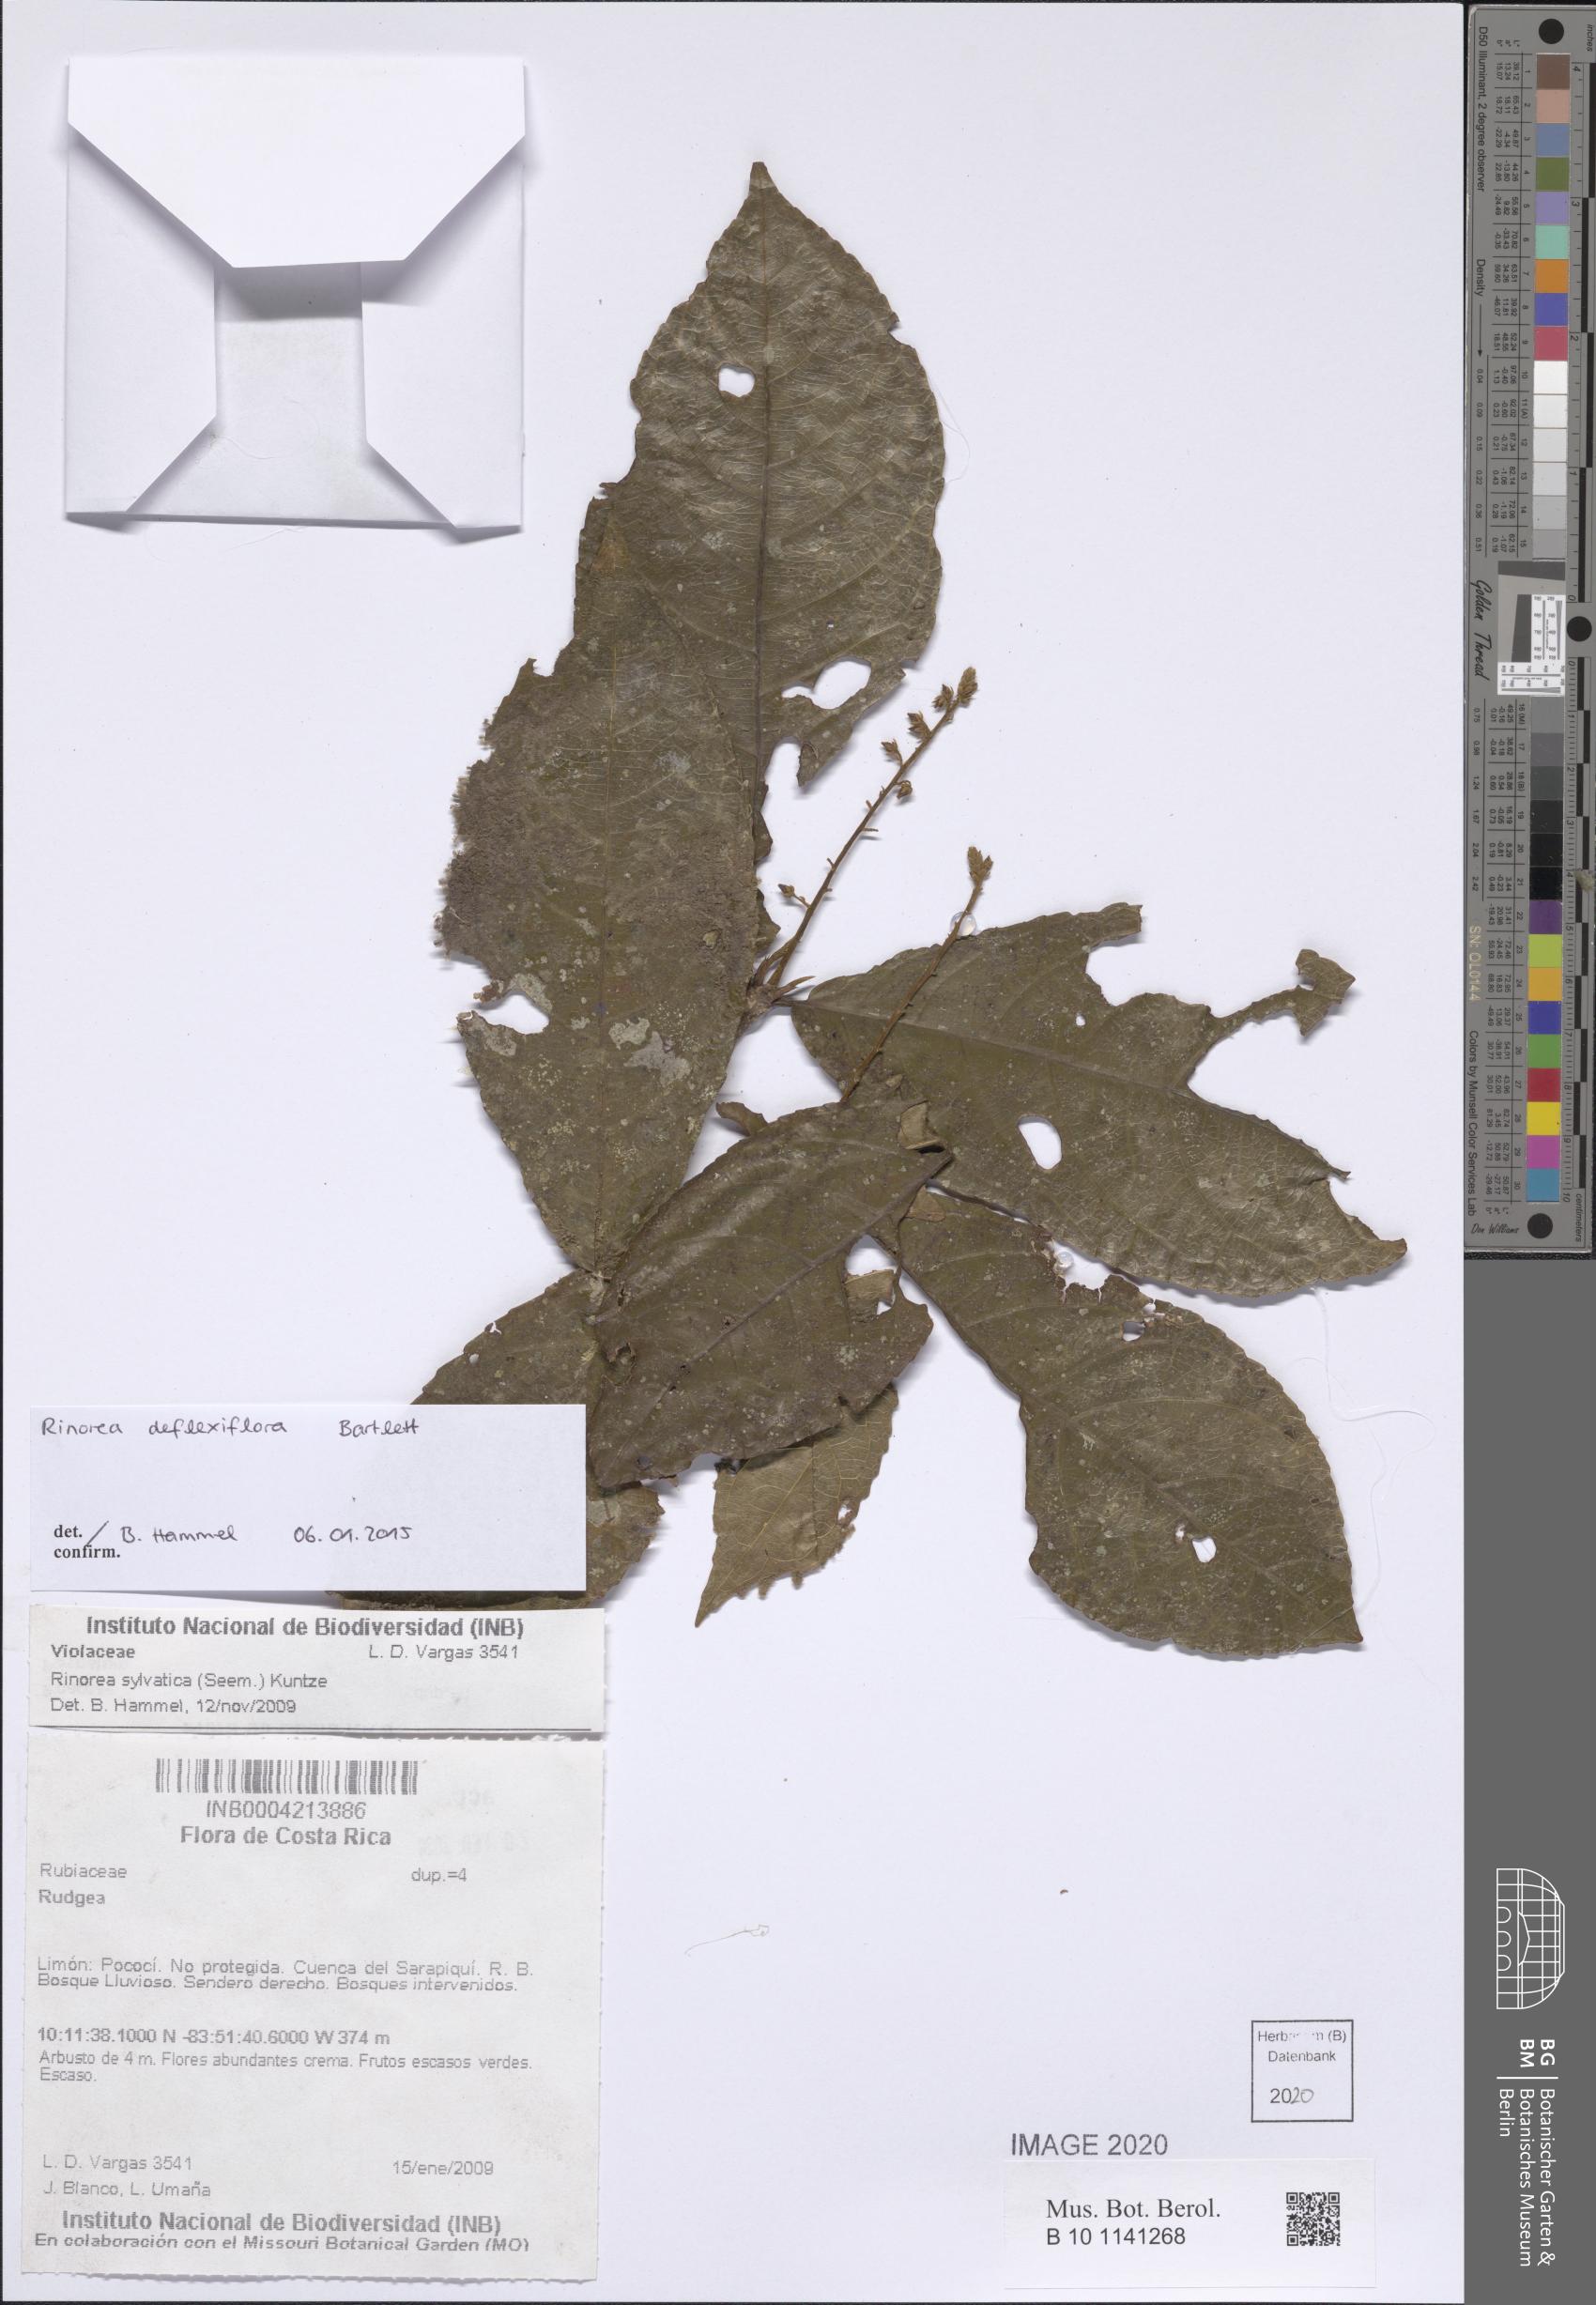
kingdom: Plantae
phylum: Tracheophyta
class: Magnoliopsida
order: Malpighiales
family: Violaceae
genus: Rinorea
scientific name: Rinorea deflexiflora
